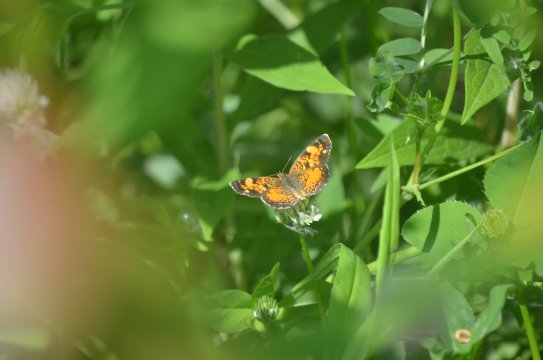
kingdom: Animalia
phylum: Arthropoda
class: Insecta
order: Lepidoptera
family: Nymphalidae
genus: Phyciodes
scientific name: Phyciodes tharos
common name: Northern Crescent
